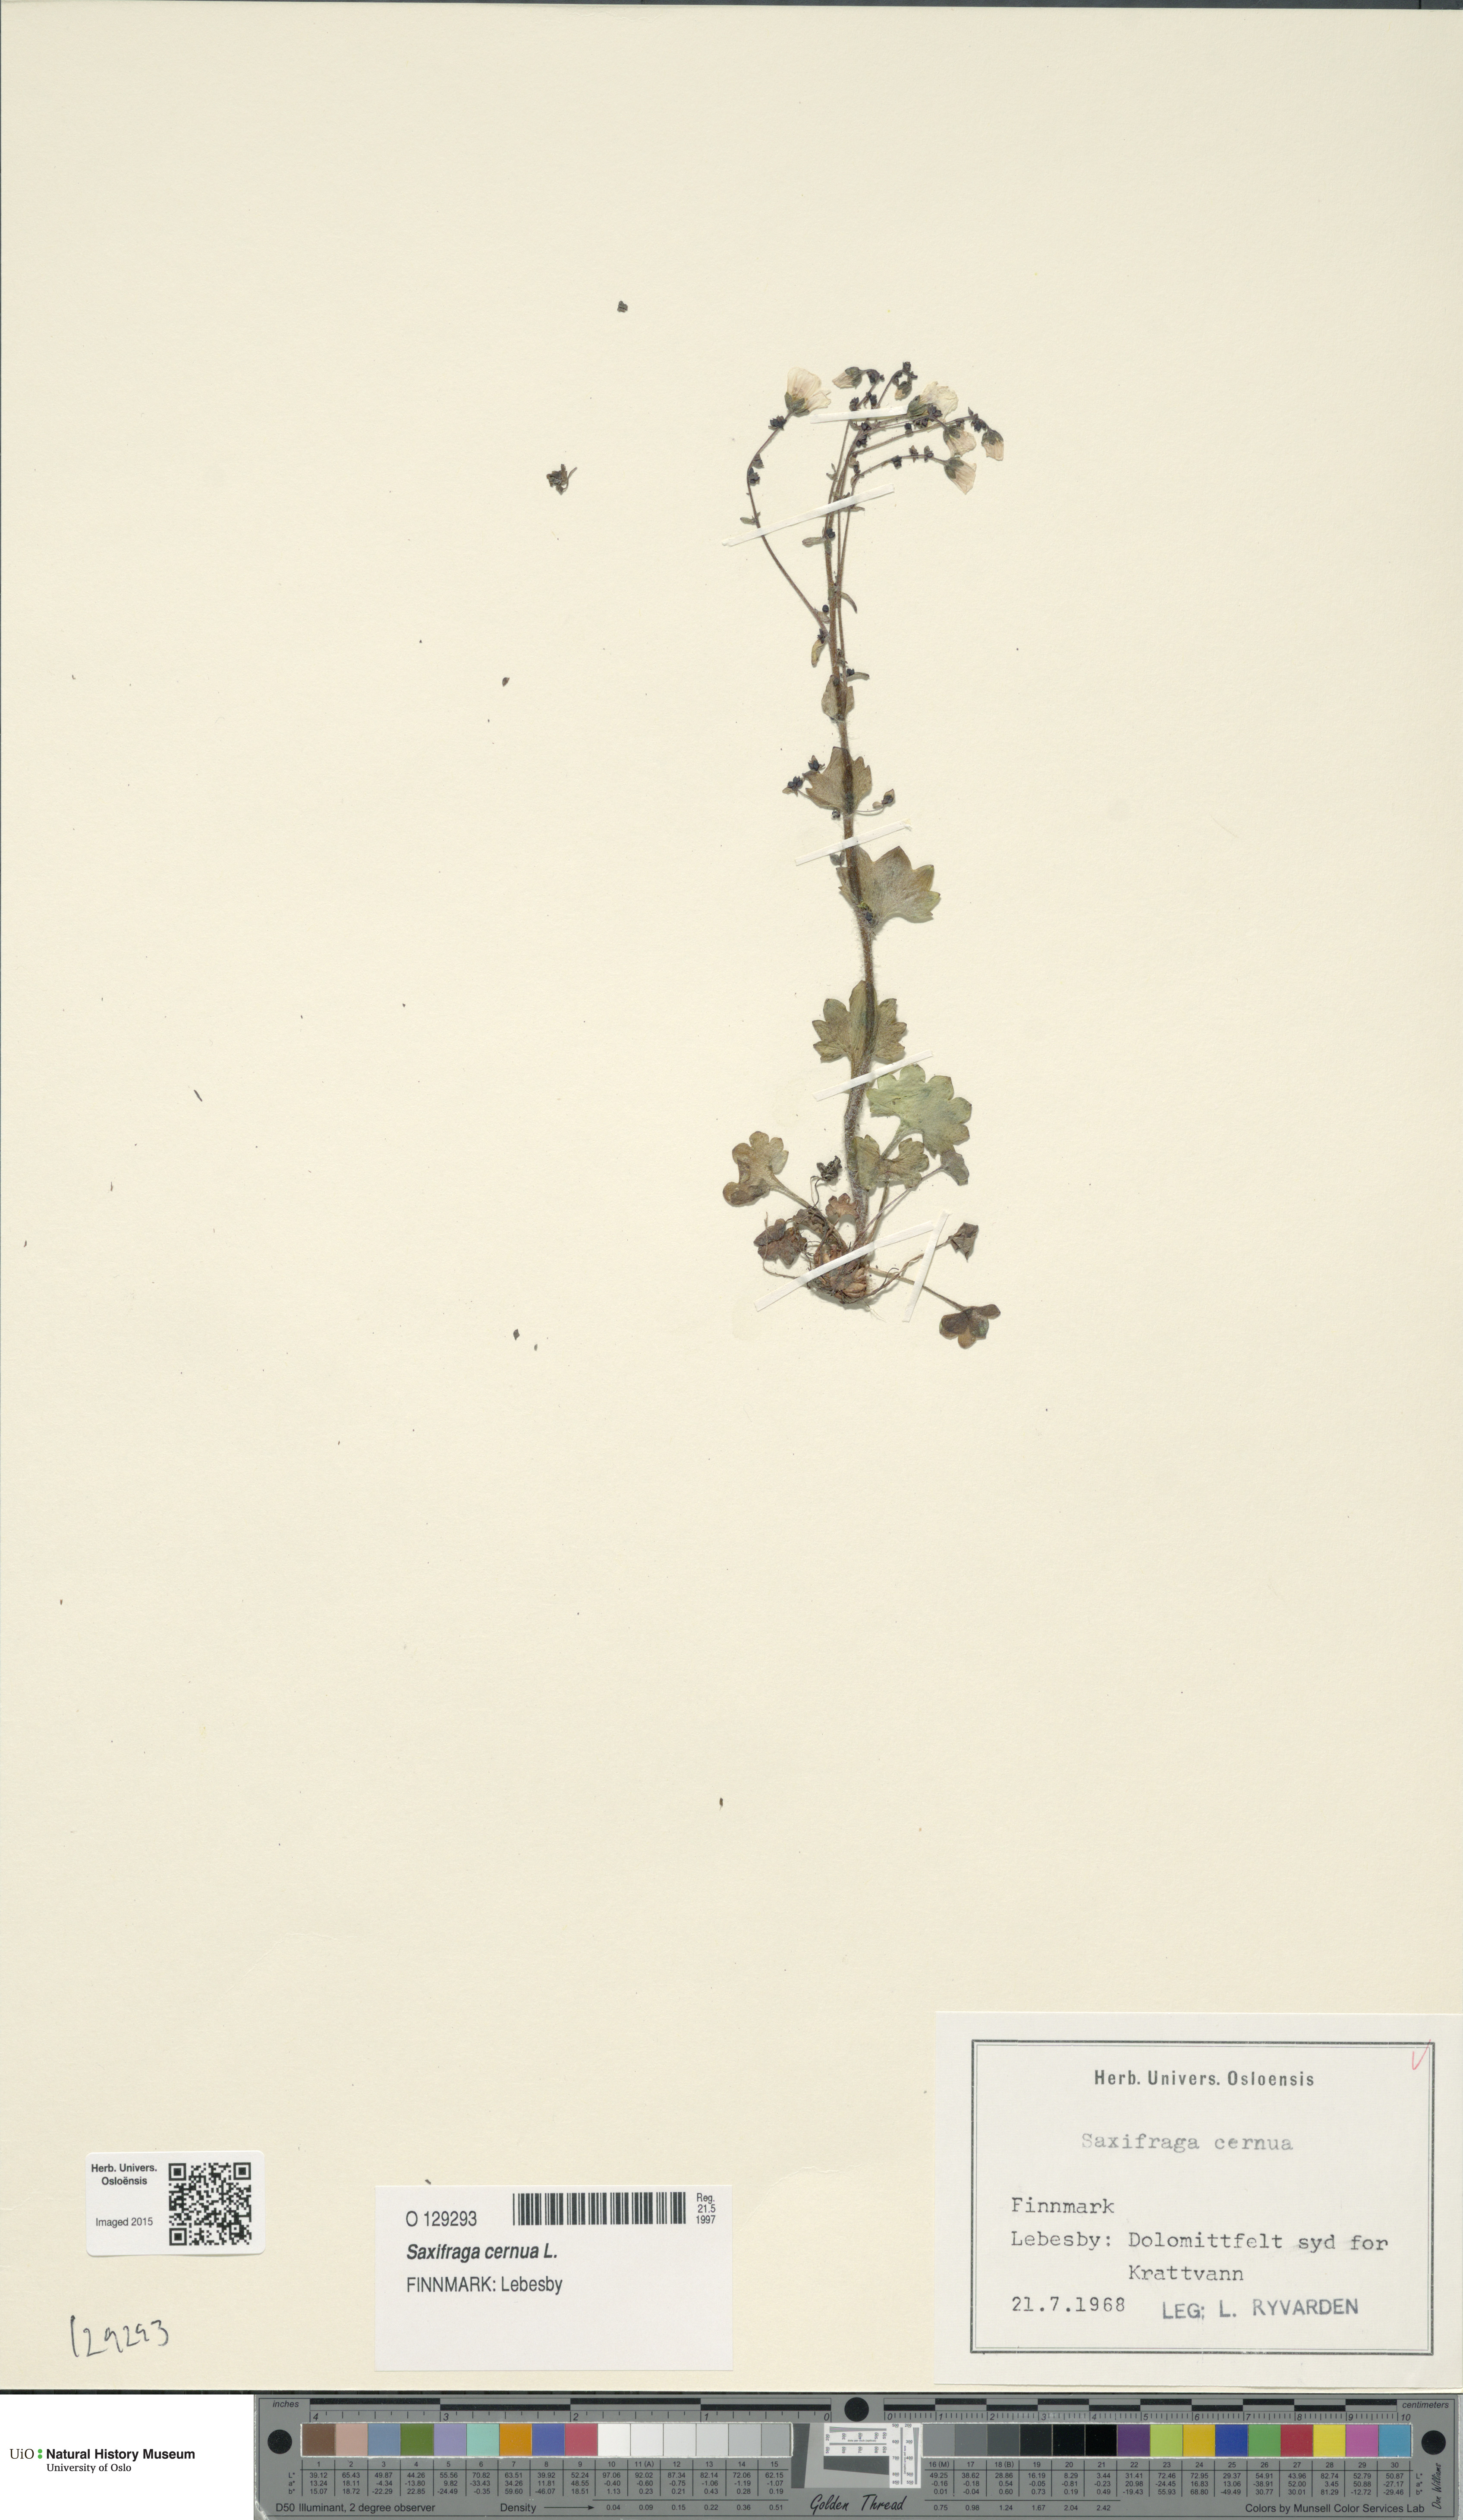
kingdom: Plantae
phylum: Tracheophyta
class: Magnoliopsida
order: Saxifragales
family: Saxifragaceae
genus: Saxifraga
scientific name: Saxifraga cernua
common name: Drooping saxifrage
